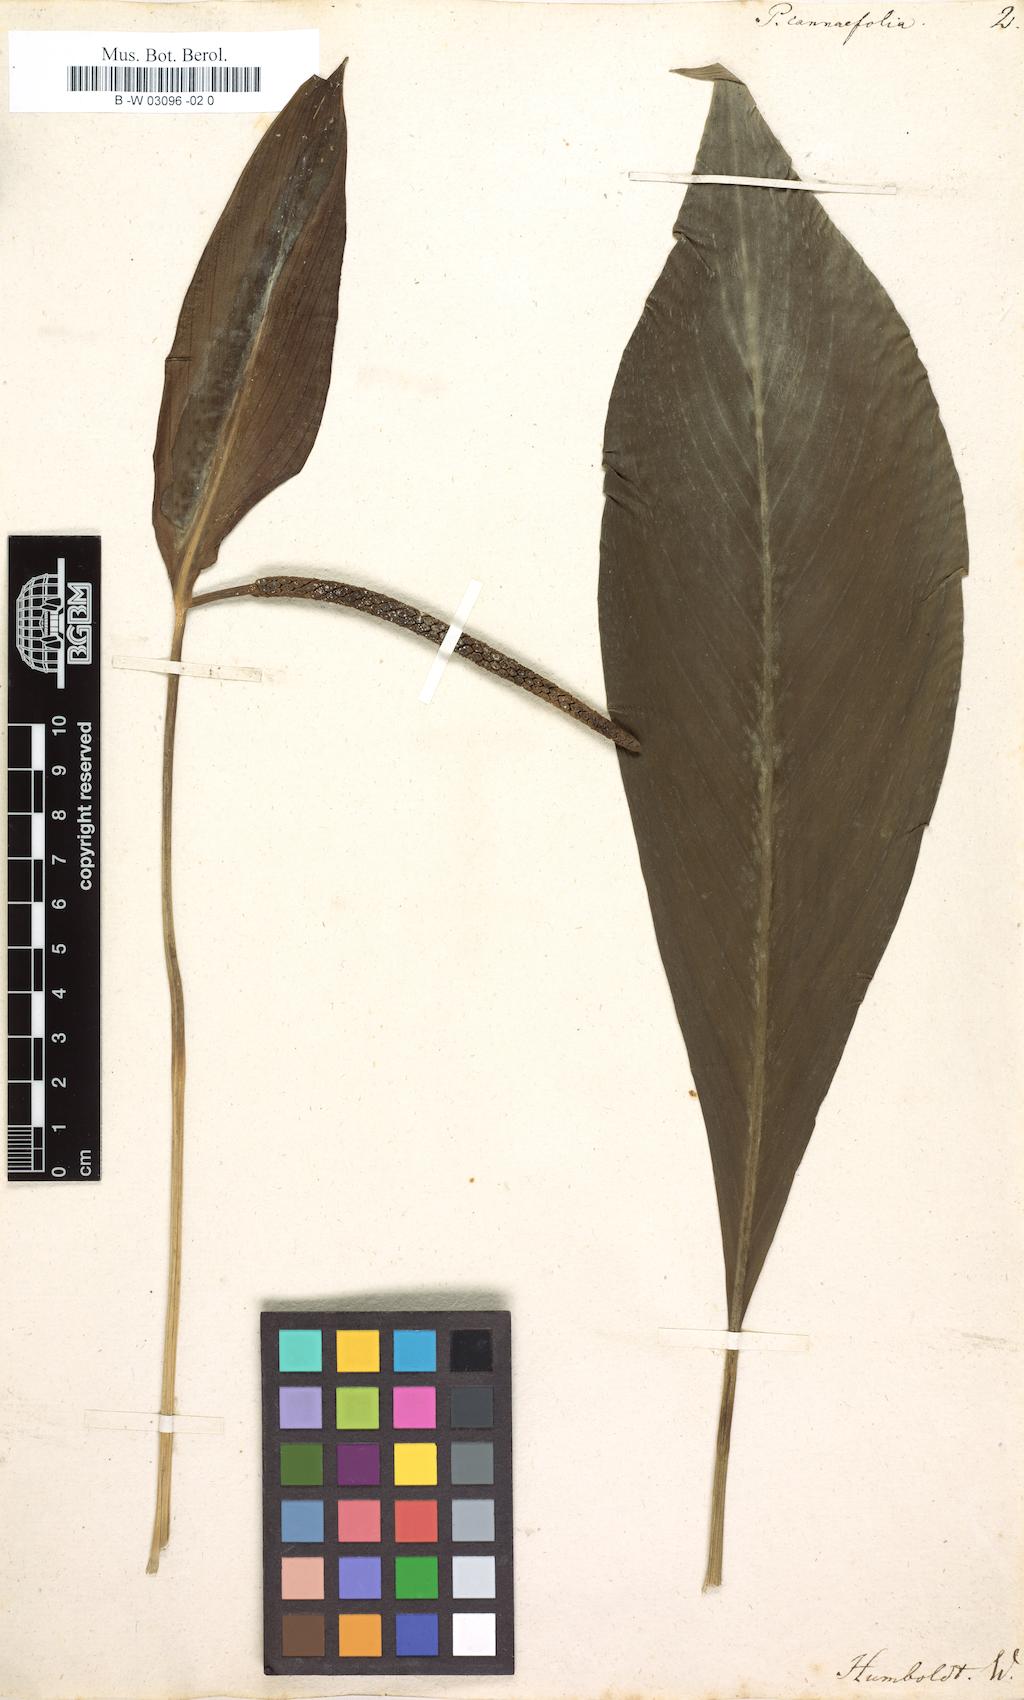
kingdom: Plantae
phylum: Tracheophyta
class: Liliopsida
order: Alismatales
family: Araceae
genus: Spathiphyllum
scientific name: Spathiphyllum cannifolium
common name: Spatheflower
